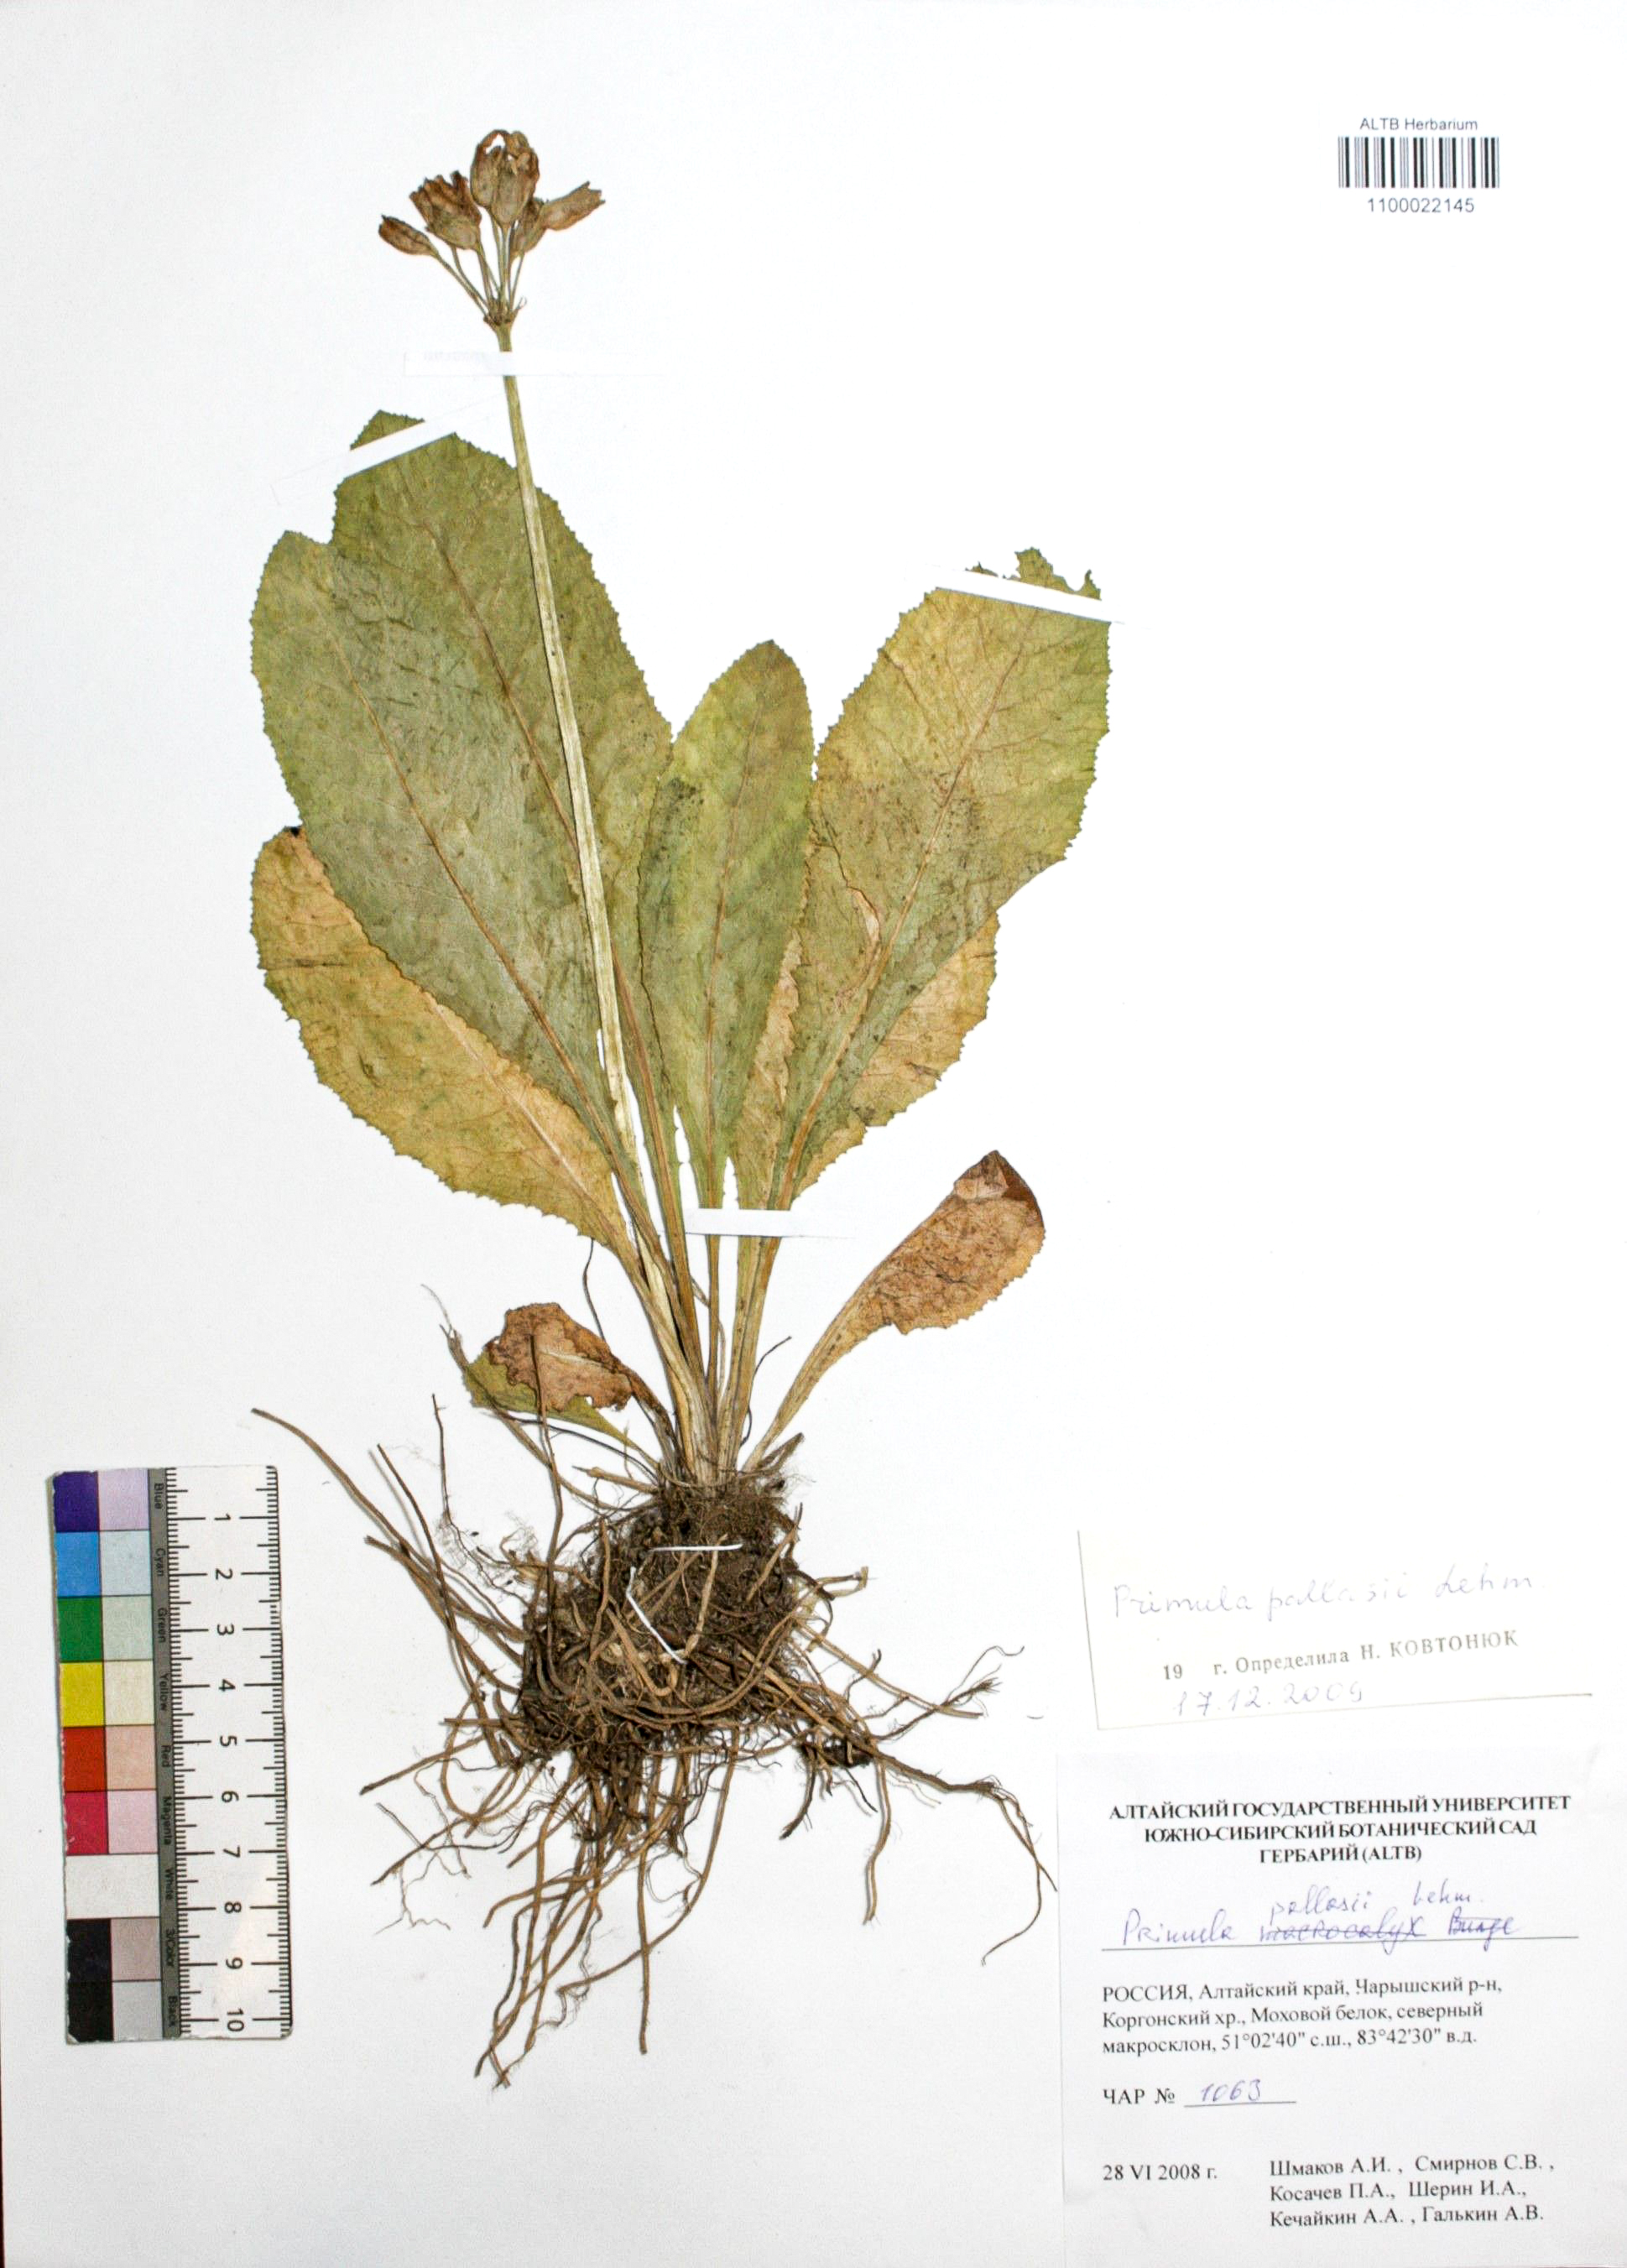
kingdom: Plantae
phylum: Tracheophyta
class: Magnoliopsida
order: Ericales
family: Primulaceae
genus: Primula
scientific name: Primula elatior
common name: Oxlip
